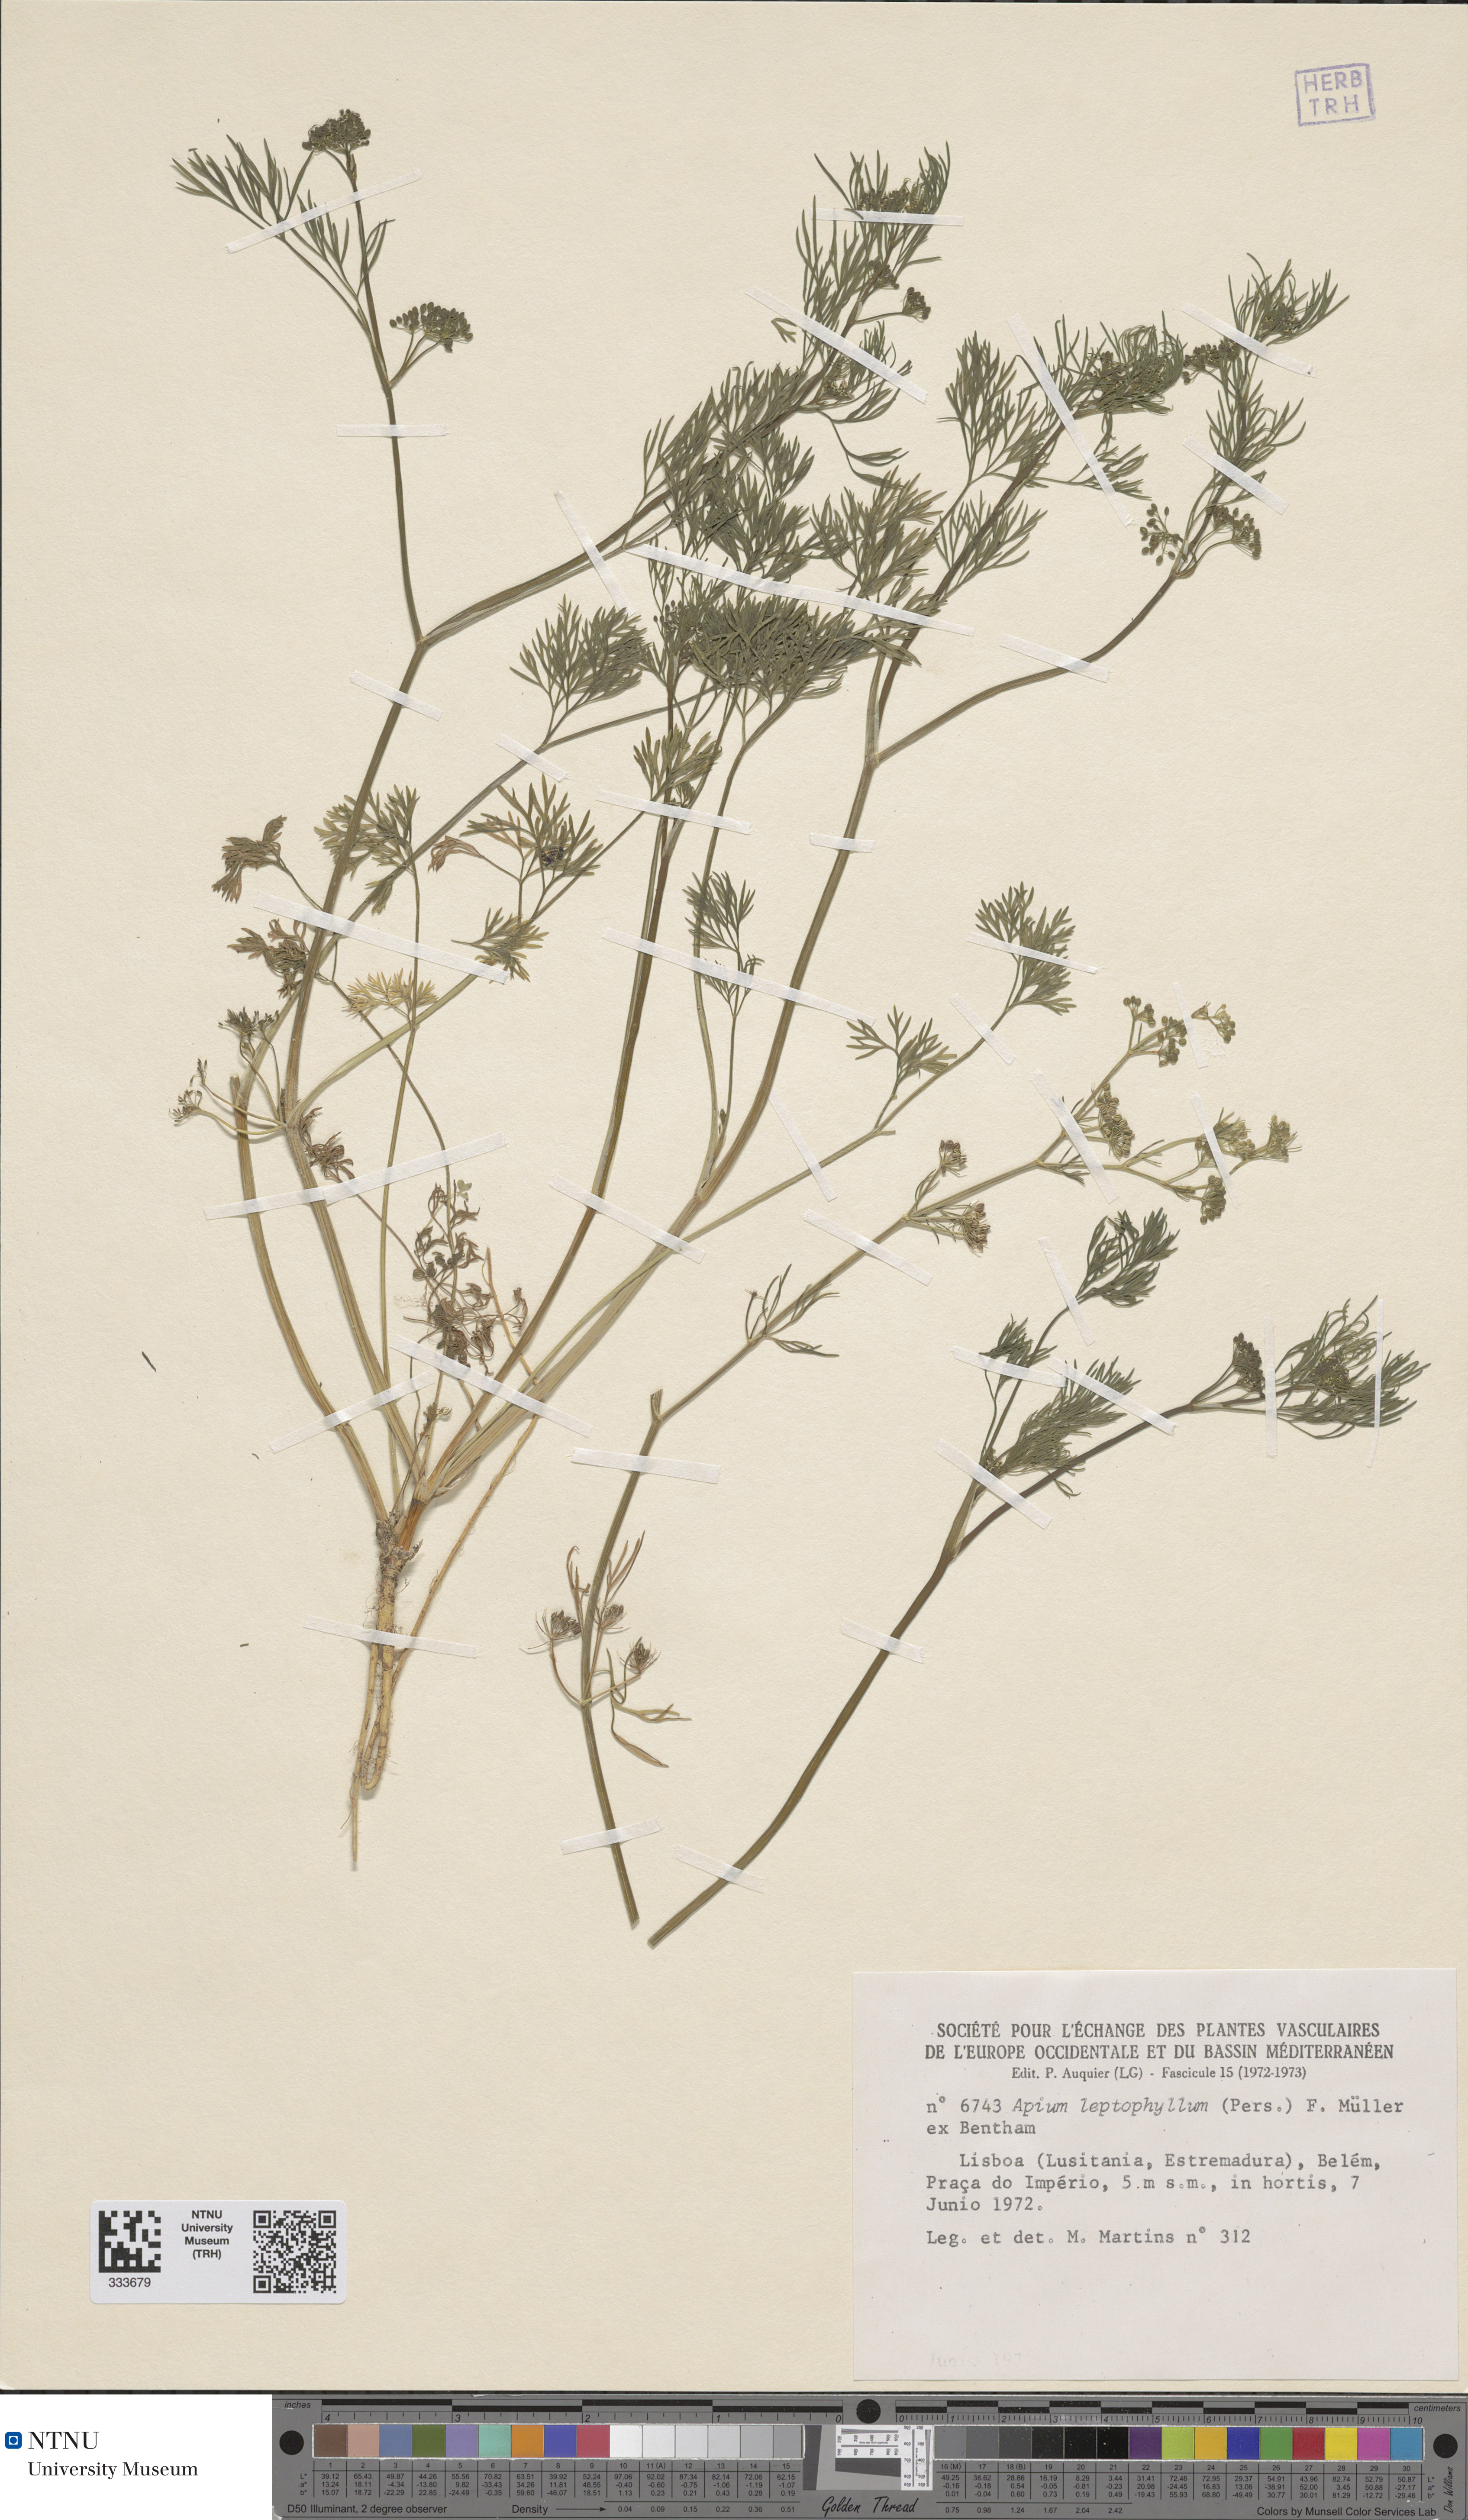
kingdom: Plantae
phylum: Tracheophyta
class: Magnoliopsida
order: Apiales
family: Apiaceae
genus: Cyclospermum
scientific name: Cyclospermum leptophyllum
